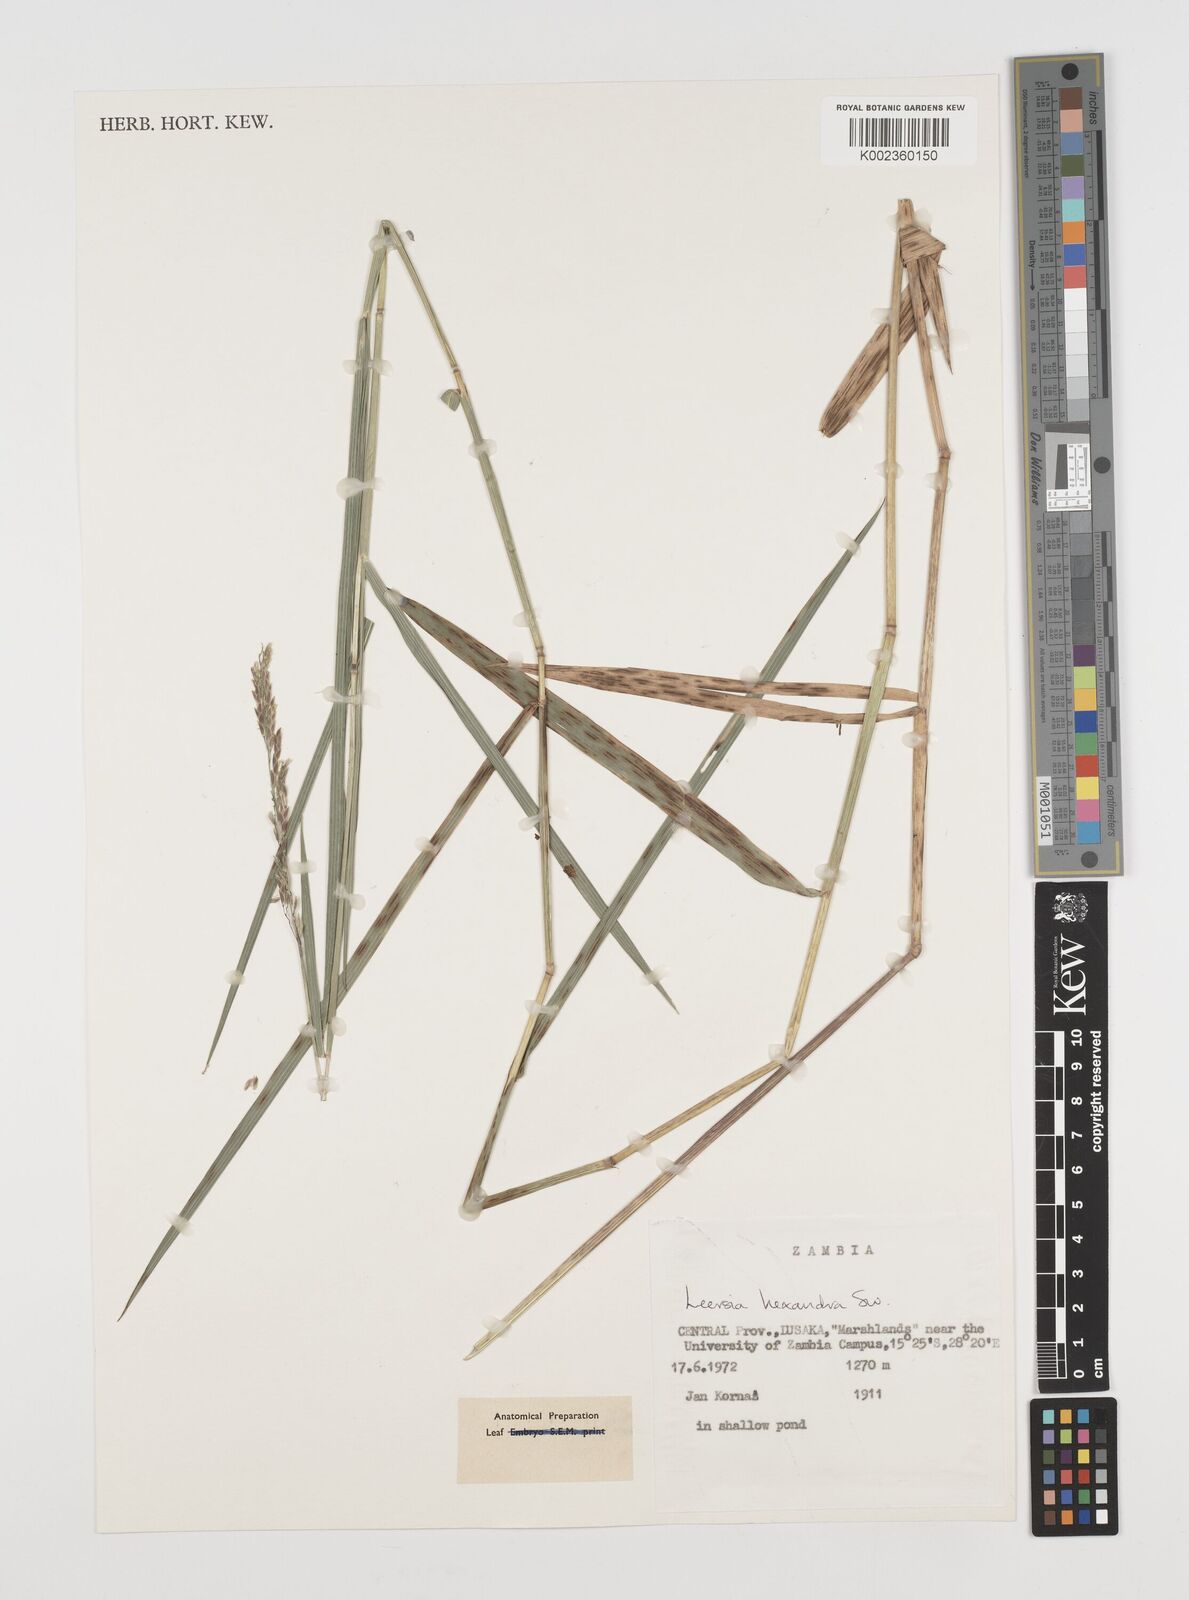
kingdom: Plantae
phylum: Tracheophyta
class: Liliopsida
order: Poales
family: Poaceae
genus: Leersia
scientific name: Leersia hexandra
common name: Southern cut grass
